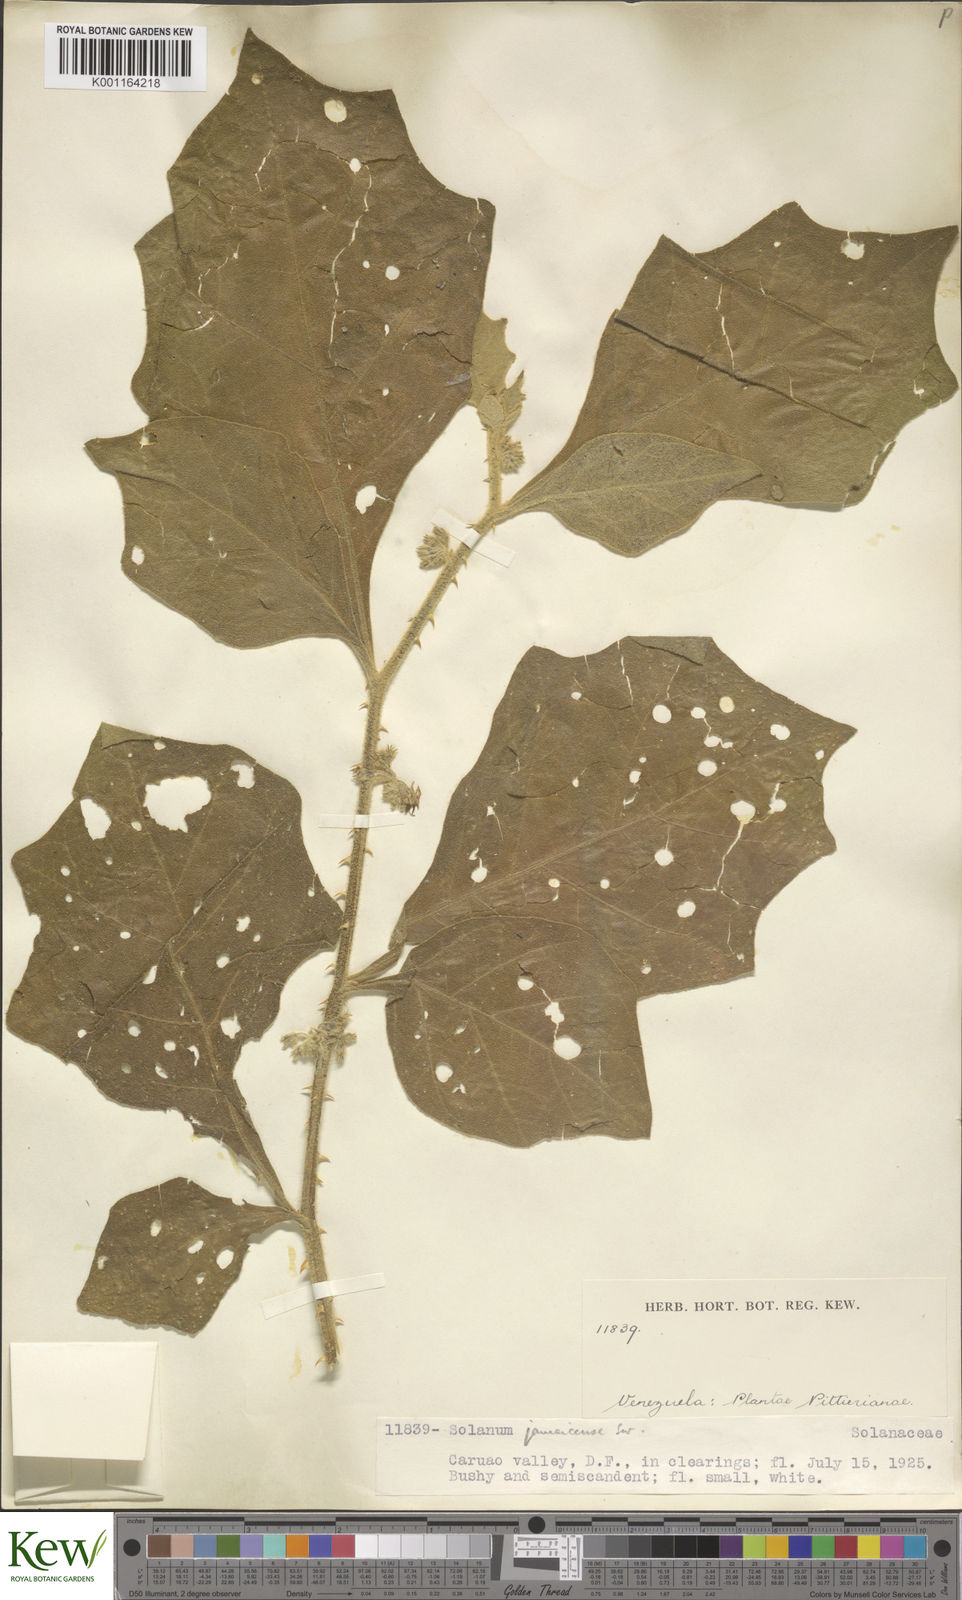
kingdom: Plantae
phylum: Tracheophyta
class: Magnoliopsida
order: Solanales
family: Solanaceae
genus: Solanum
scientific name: Solanum jamaicense
